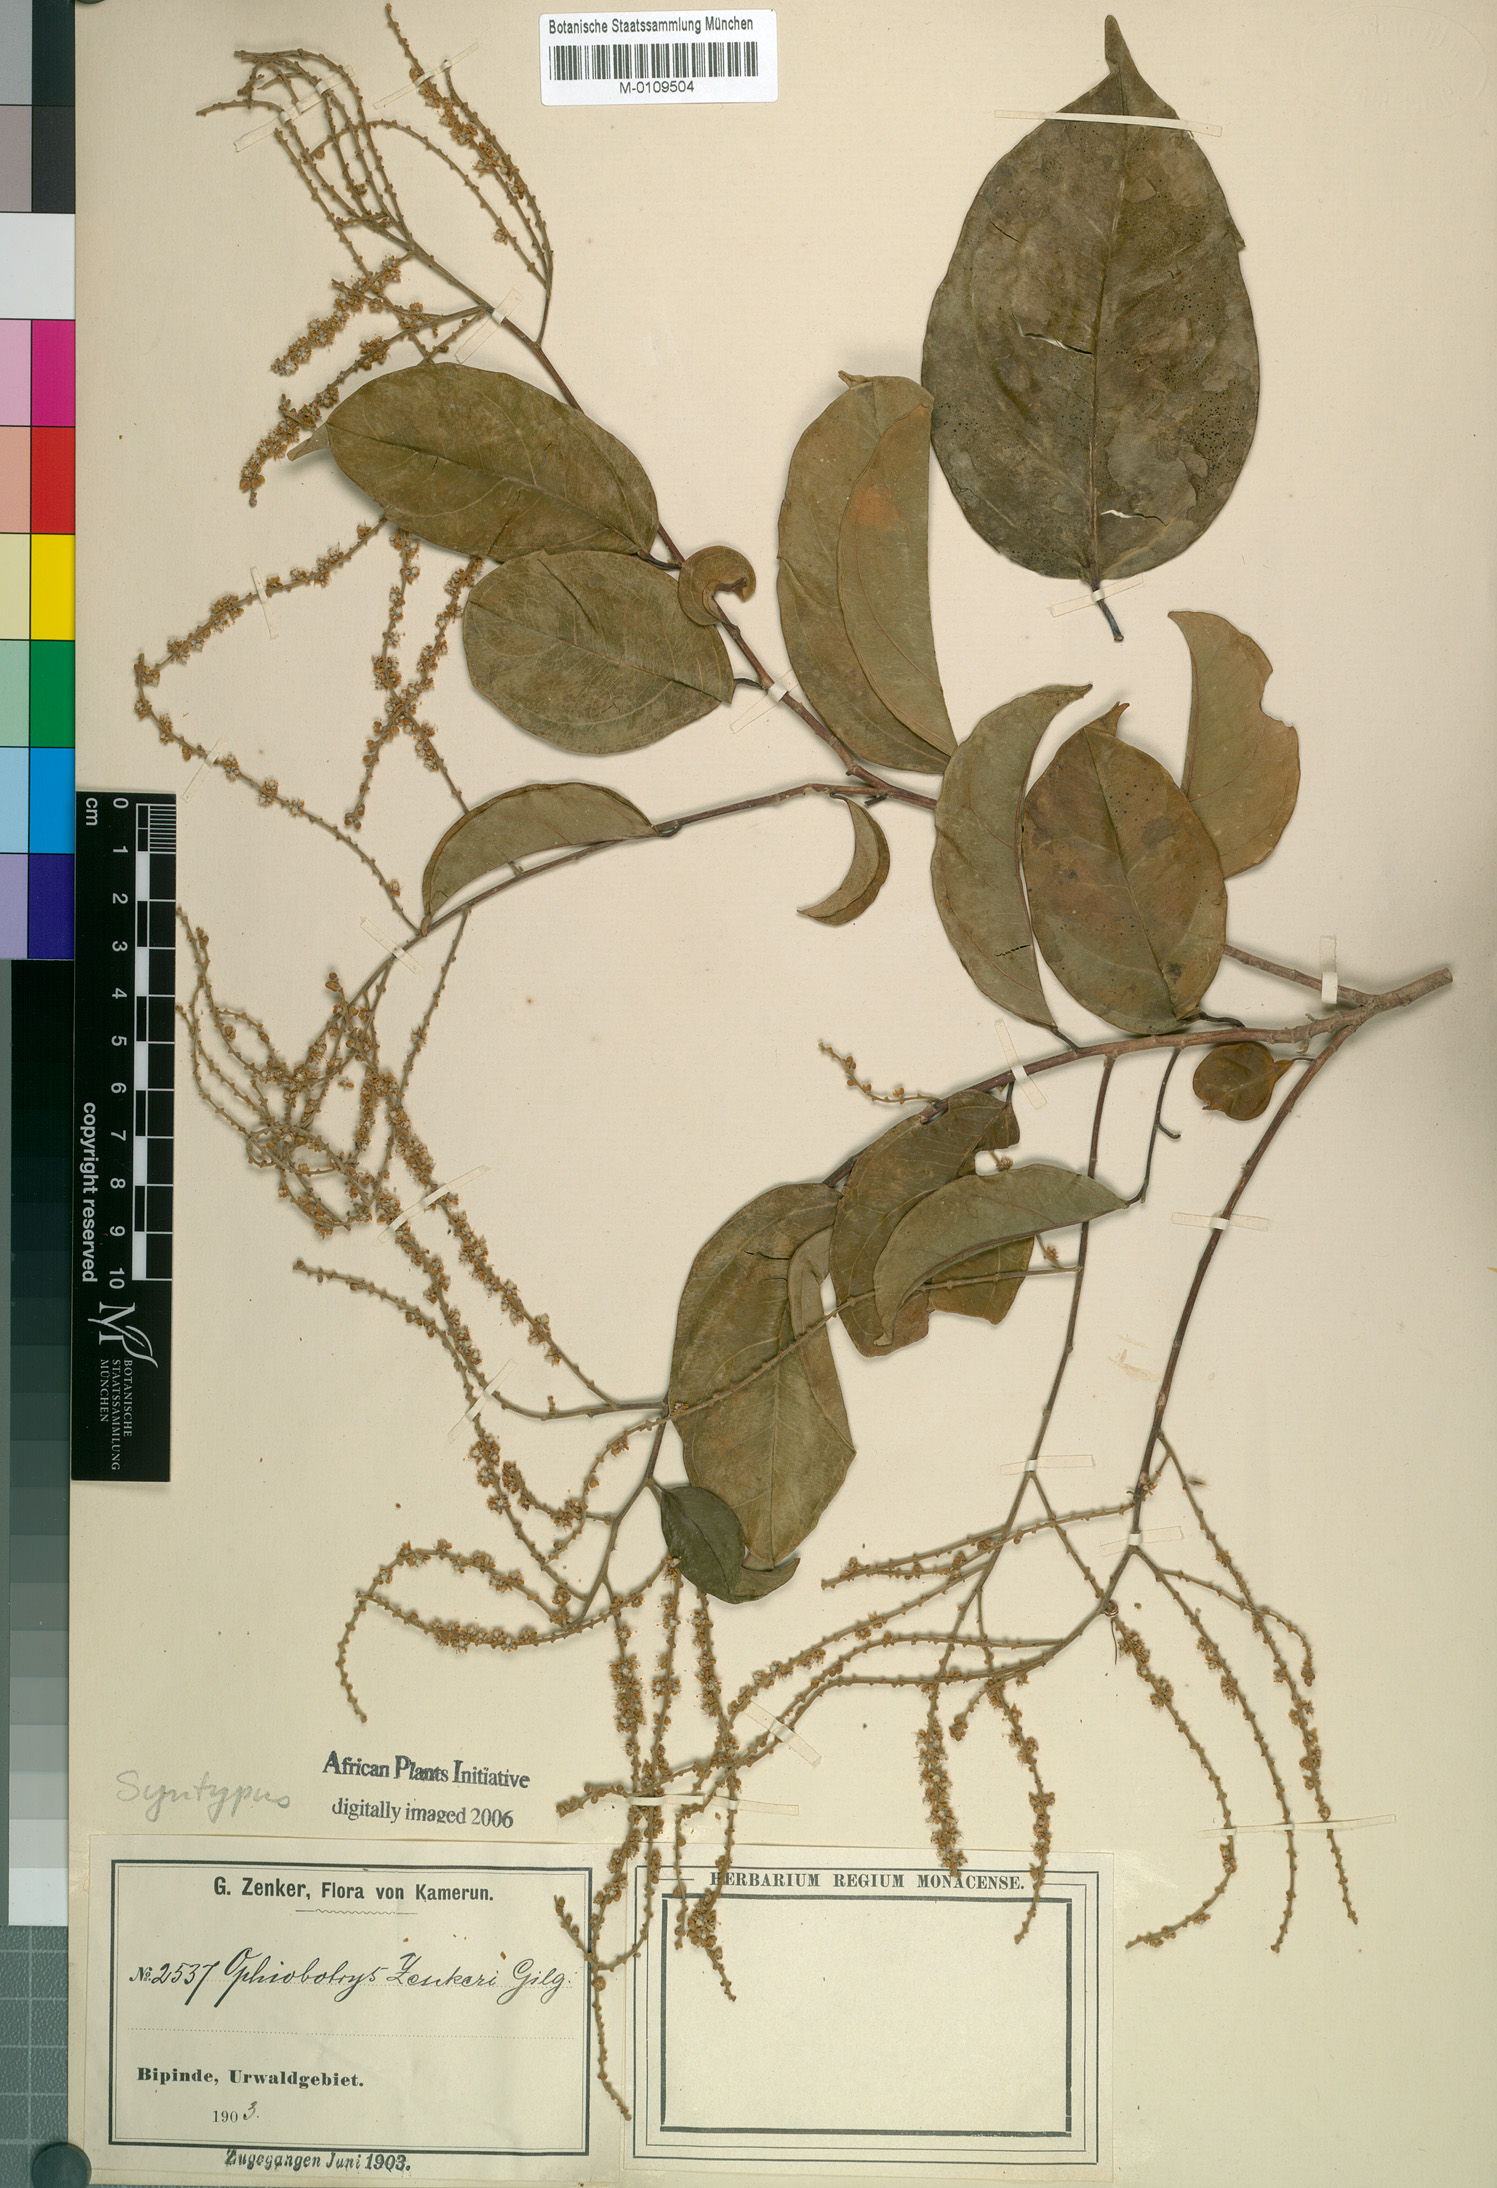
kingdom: Plantae
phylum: Tracheophyta
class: Magnoliopsida
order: Malpighiales
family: Salicaceae
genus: Ophiobotrys
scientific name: Ophiobotrys zenkeri
